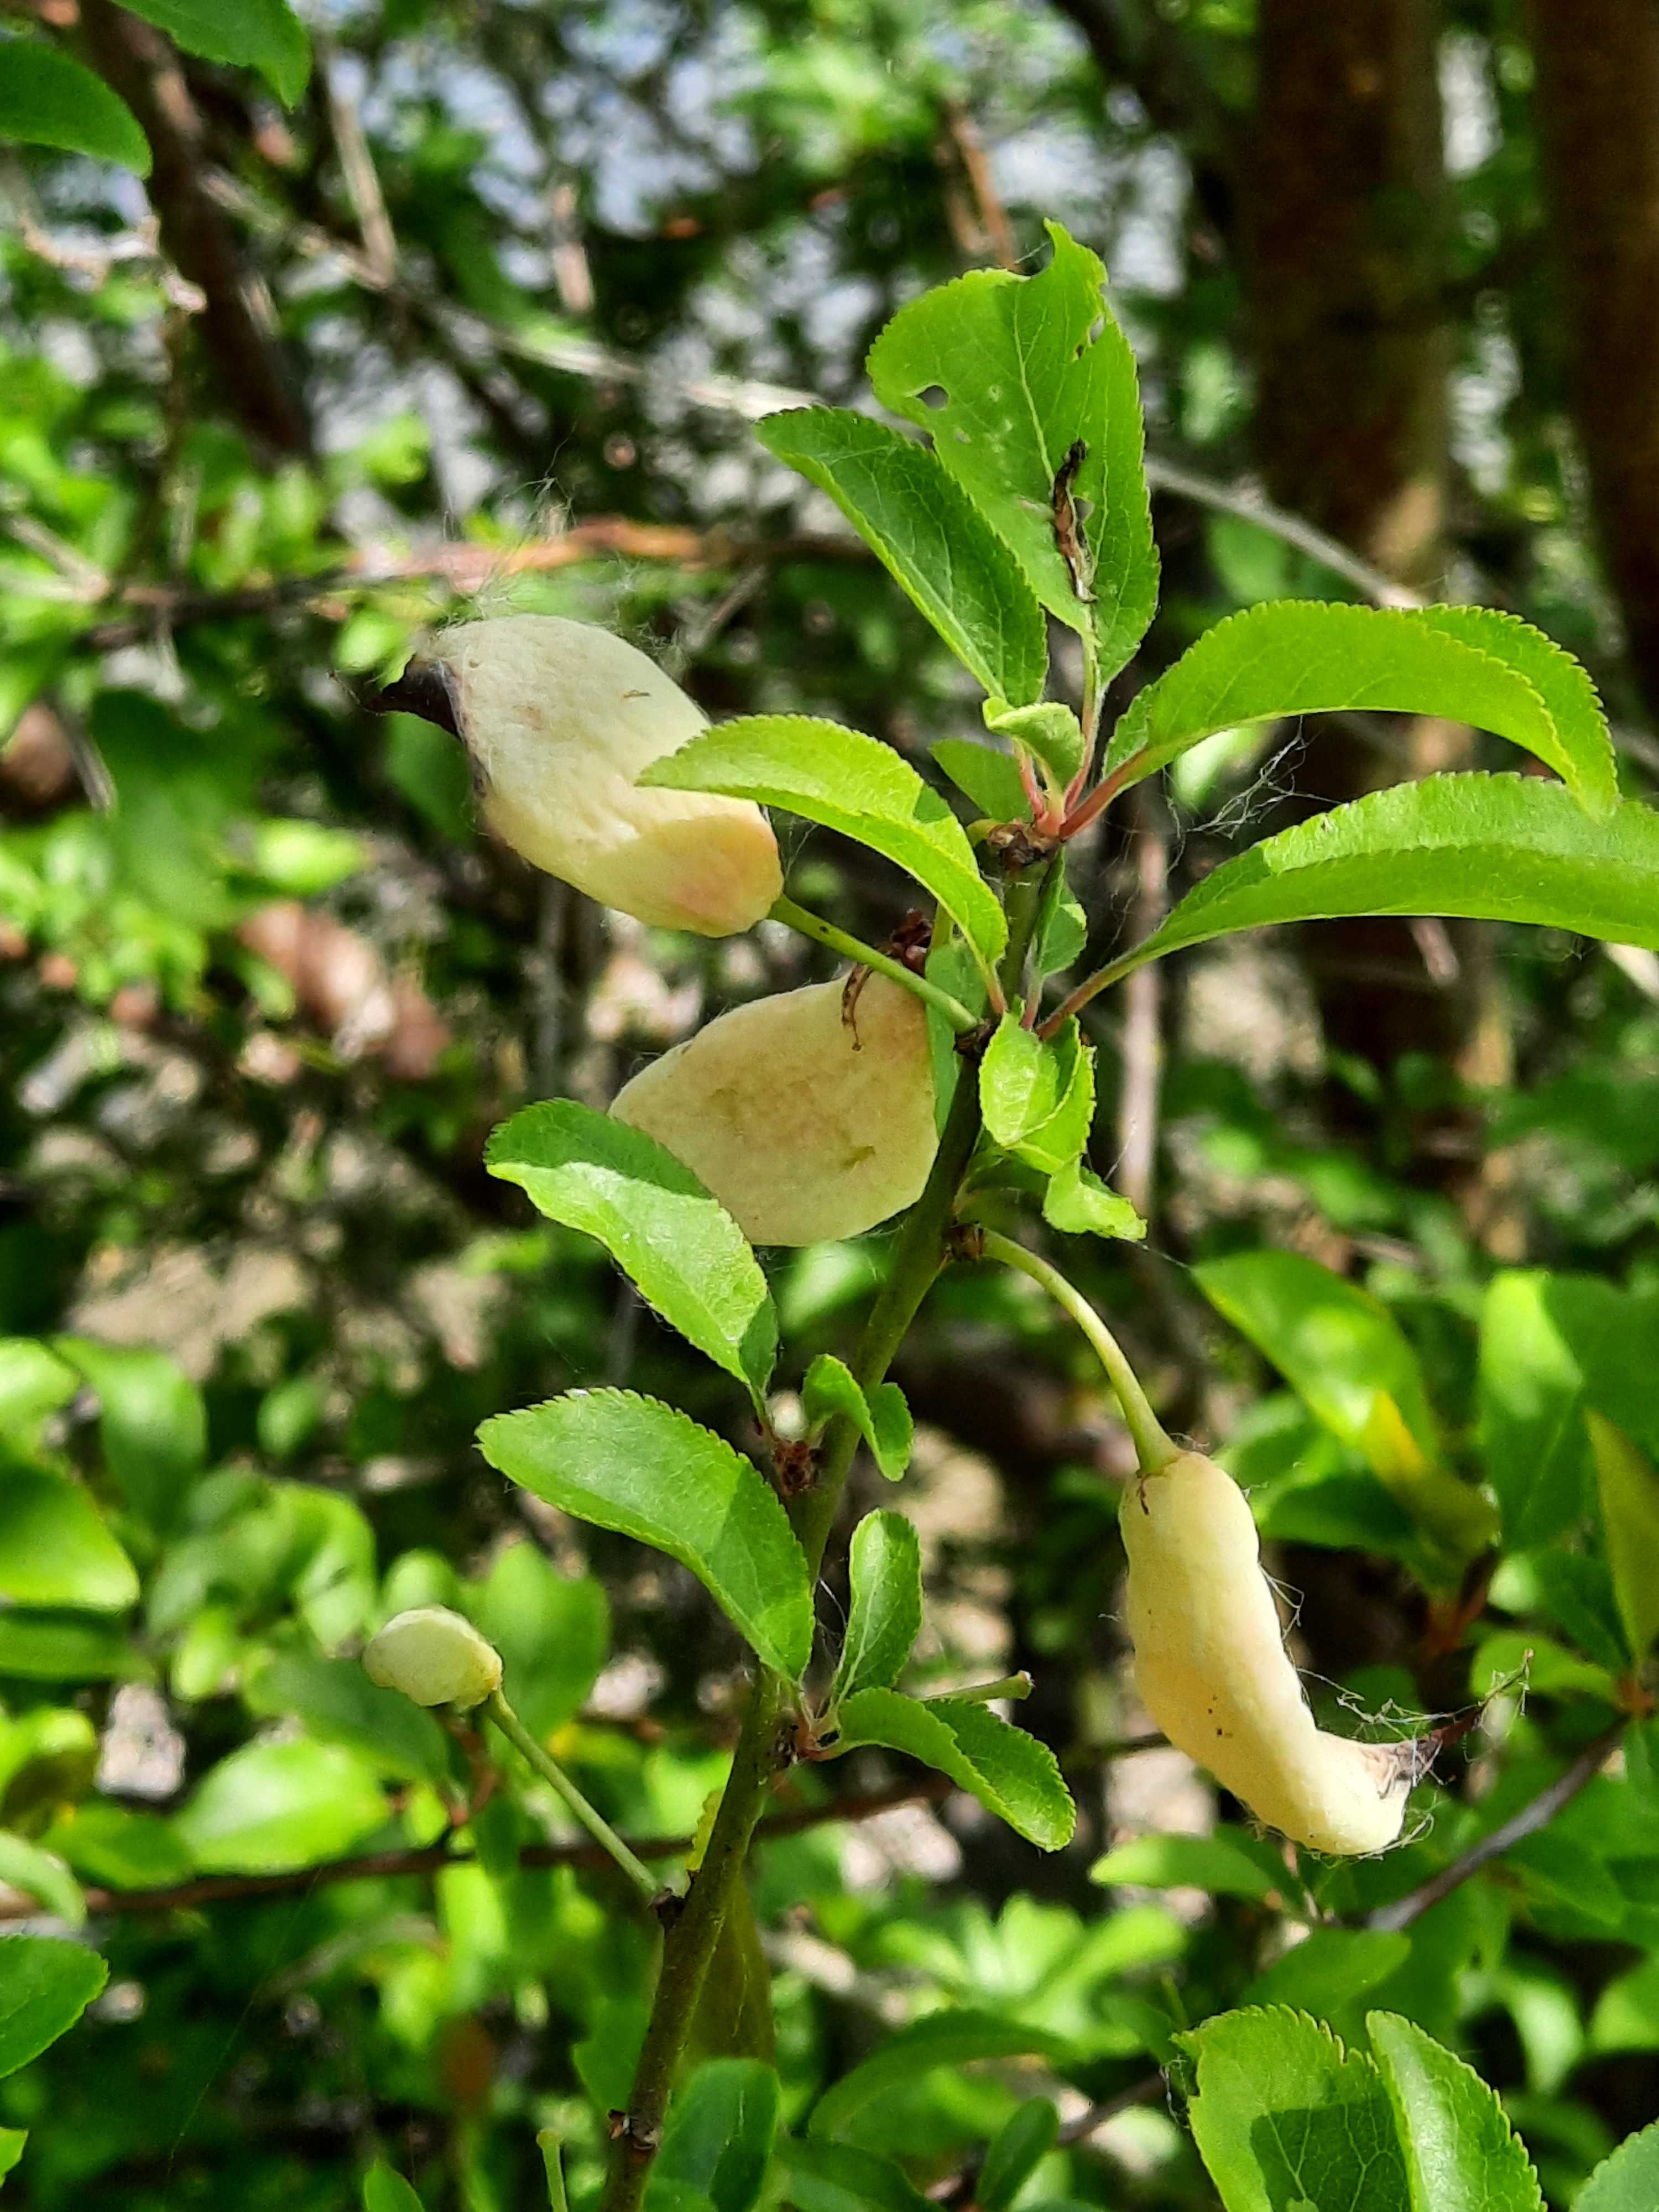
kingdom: Fungi
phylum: Ascomycota
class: Taphrinomycetes
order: Taphrinales
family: Taphrinaceae
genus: Taphrina
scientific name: Taphrina pruni
